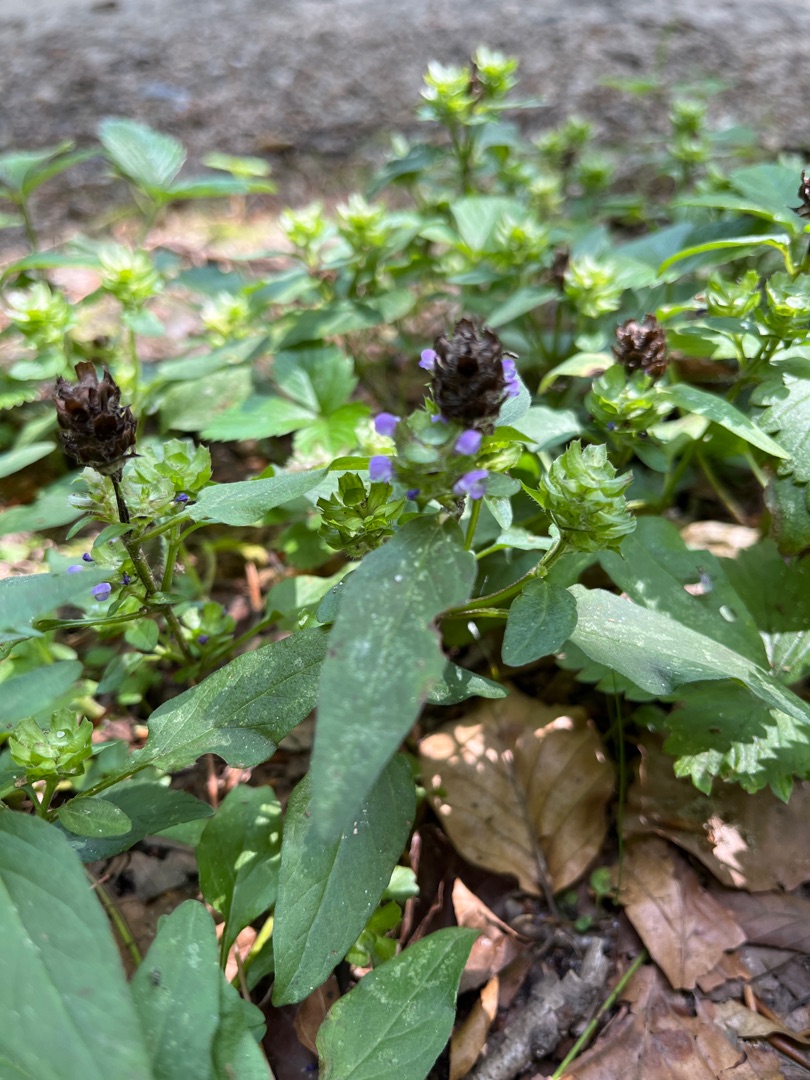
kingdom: Plantae
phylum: Tracheophyta
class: Magnoliopsida
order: Lamiales
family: Lamiaceae
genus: Prunella
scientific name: Prunella vulgaris
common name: Almindelig brunelle
